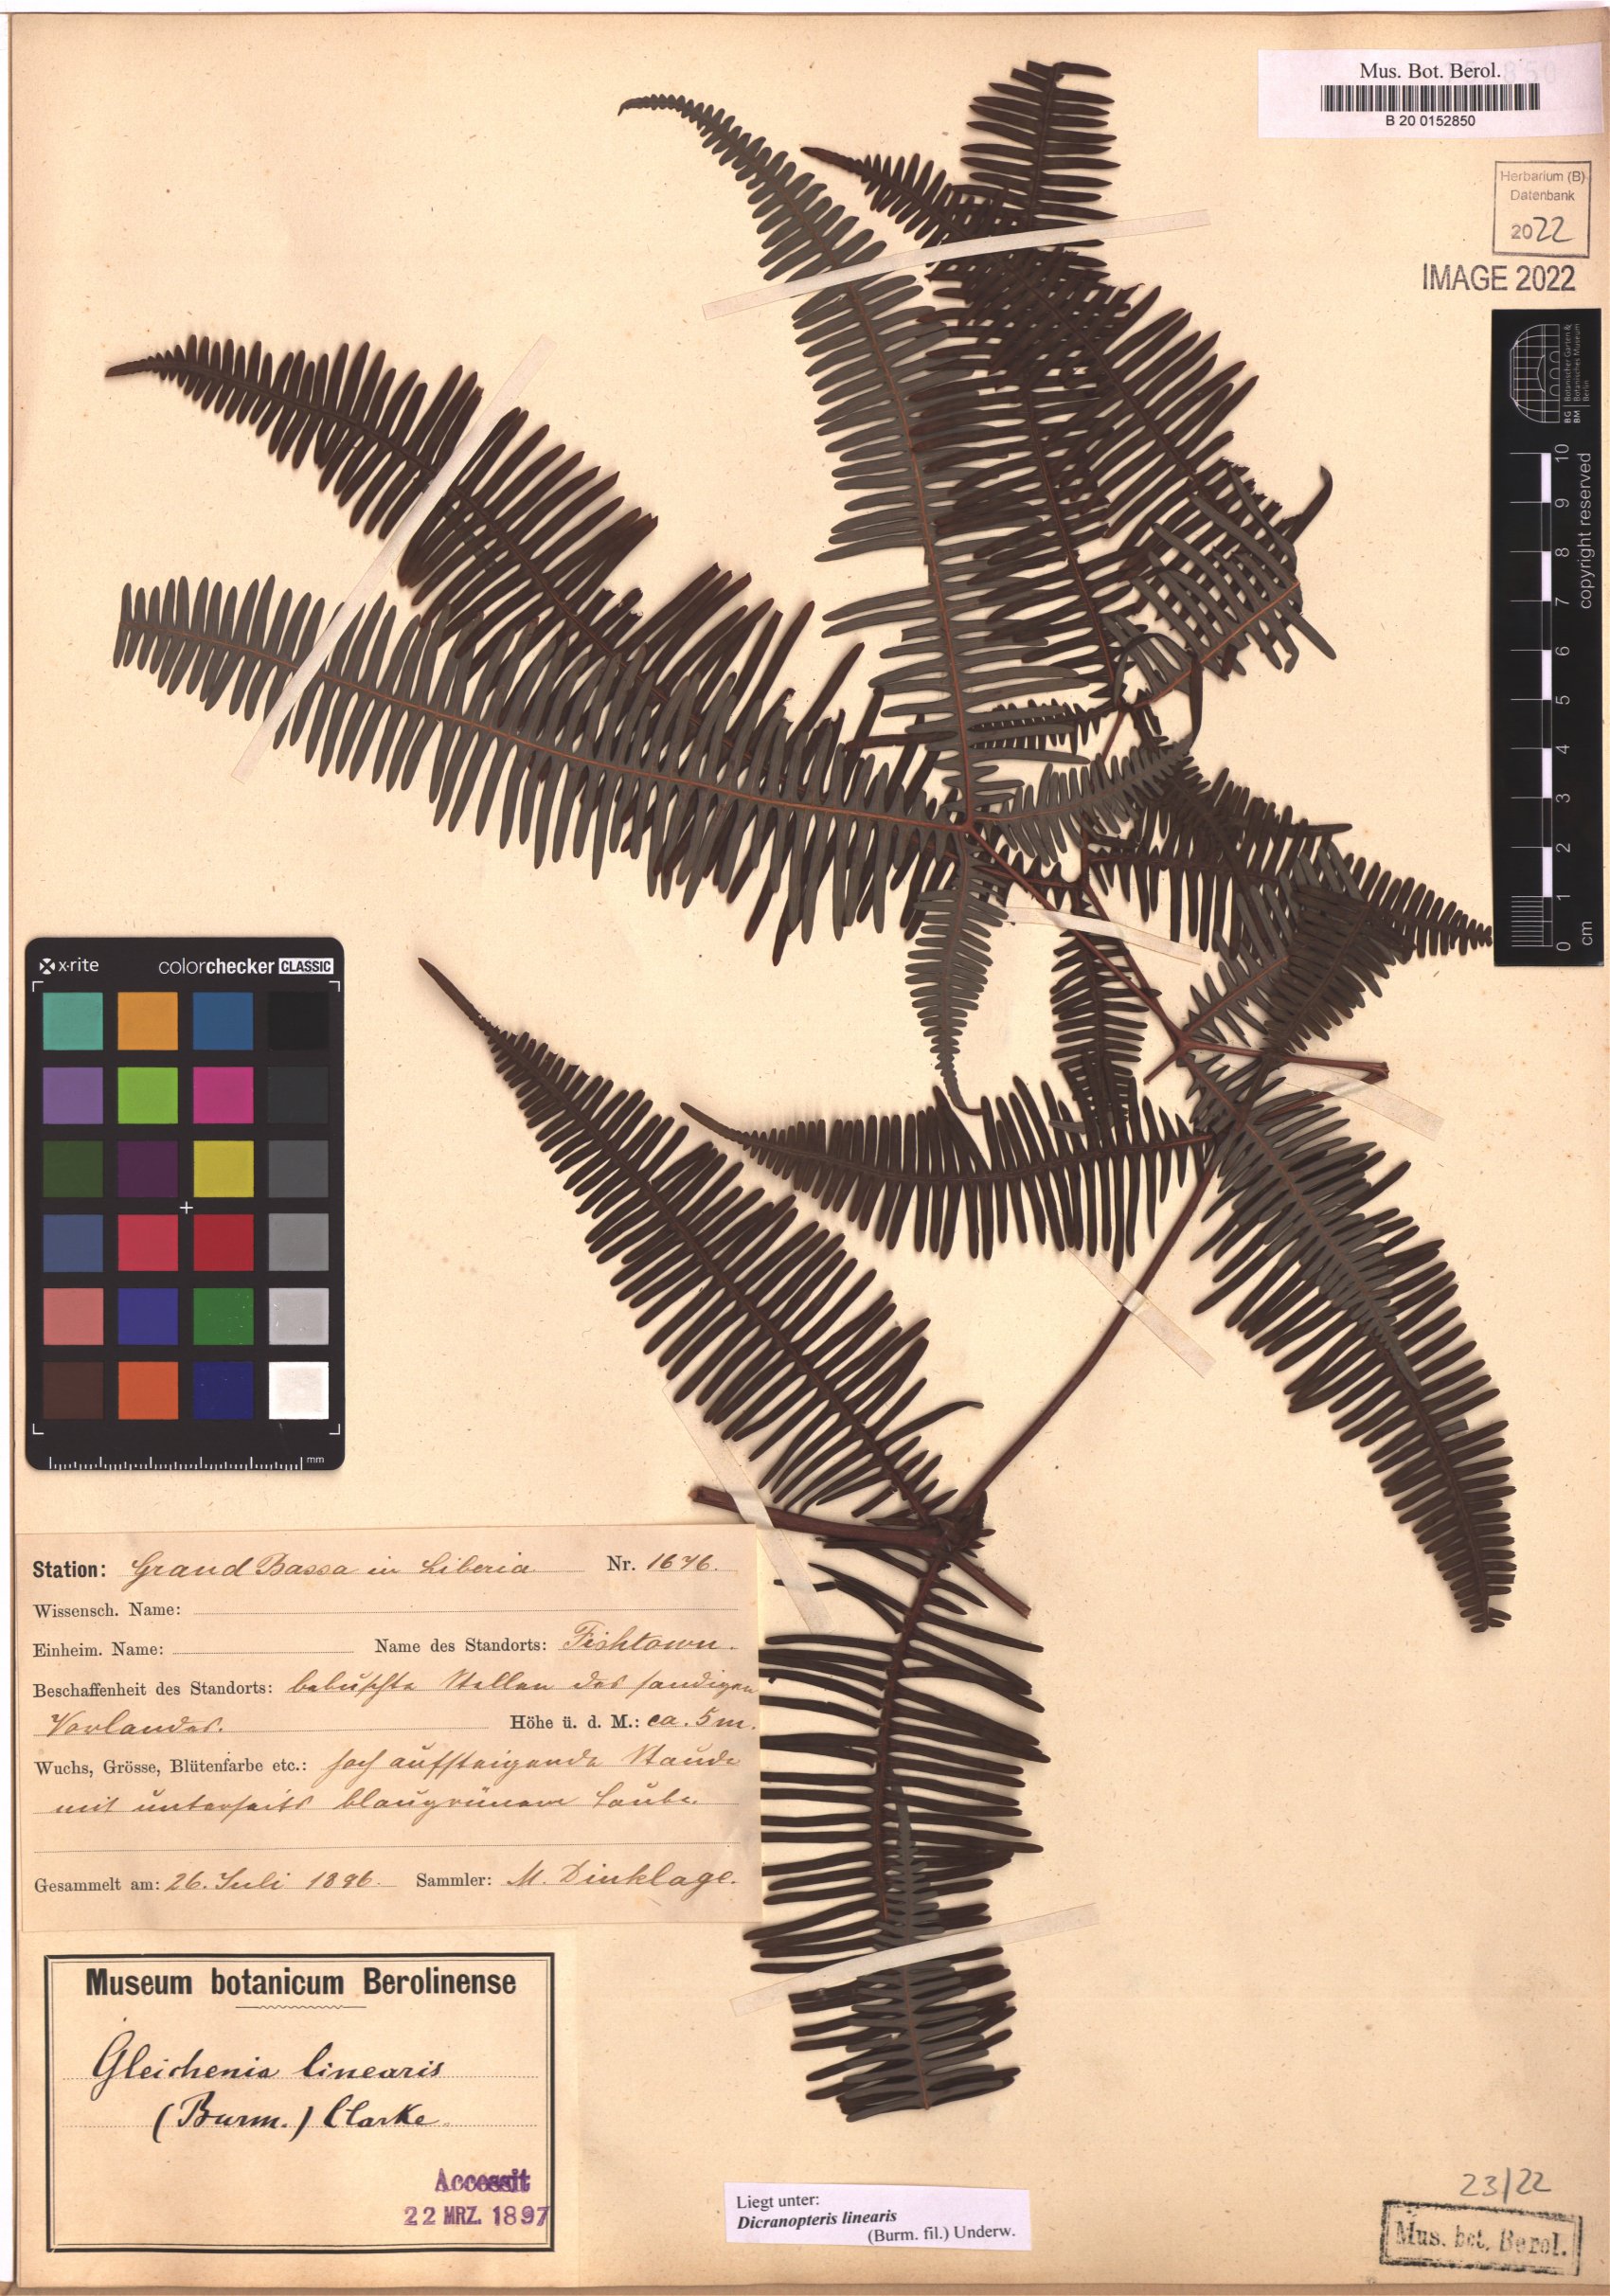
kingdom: Plantae
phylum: Tracheophyta
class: Polypodiopsida
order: Gleicheniales
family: Gleicheniaceae
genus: Dicranopteris
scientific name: Dicranopteris linearis
